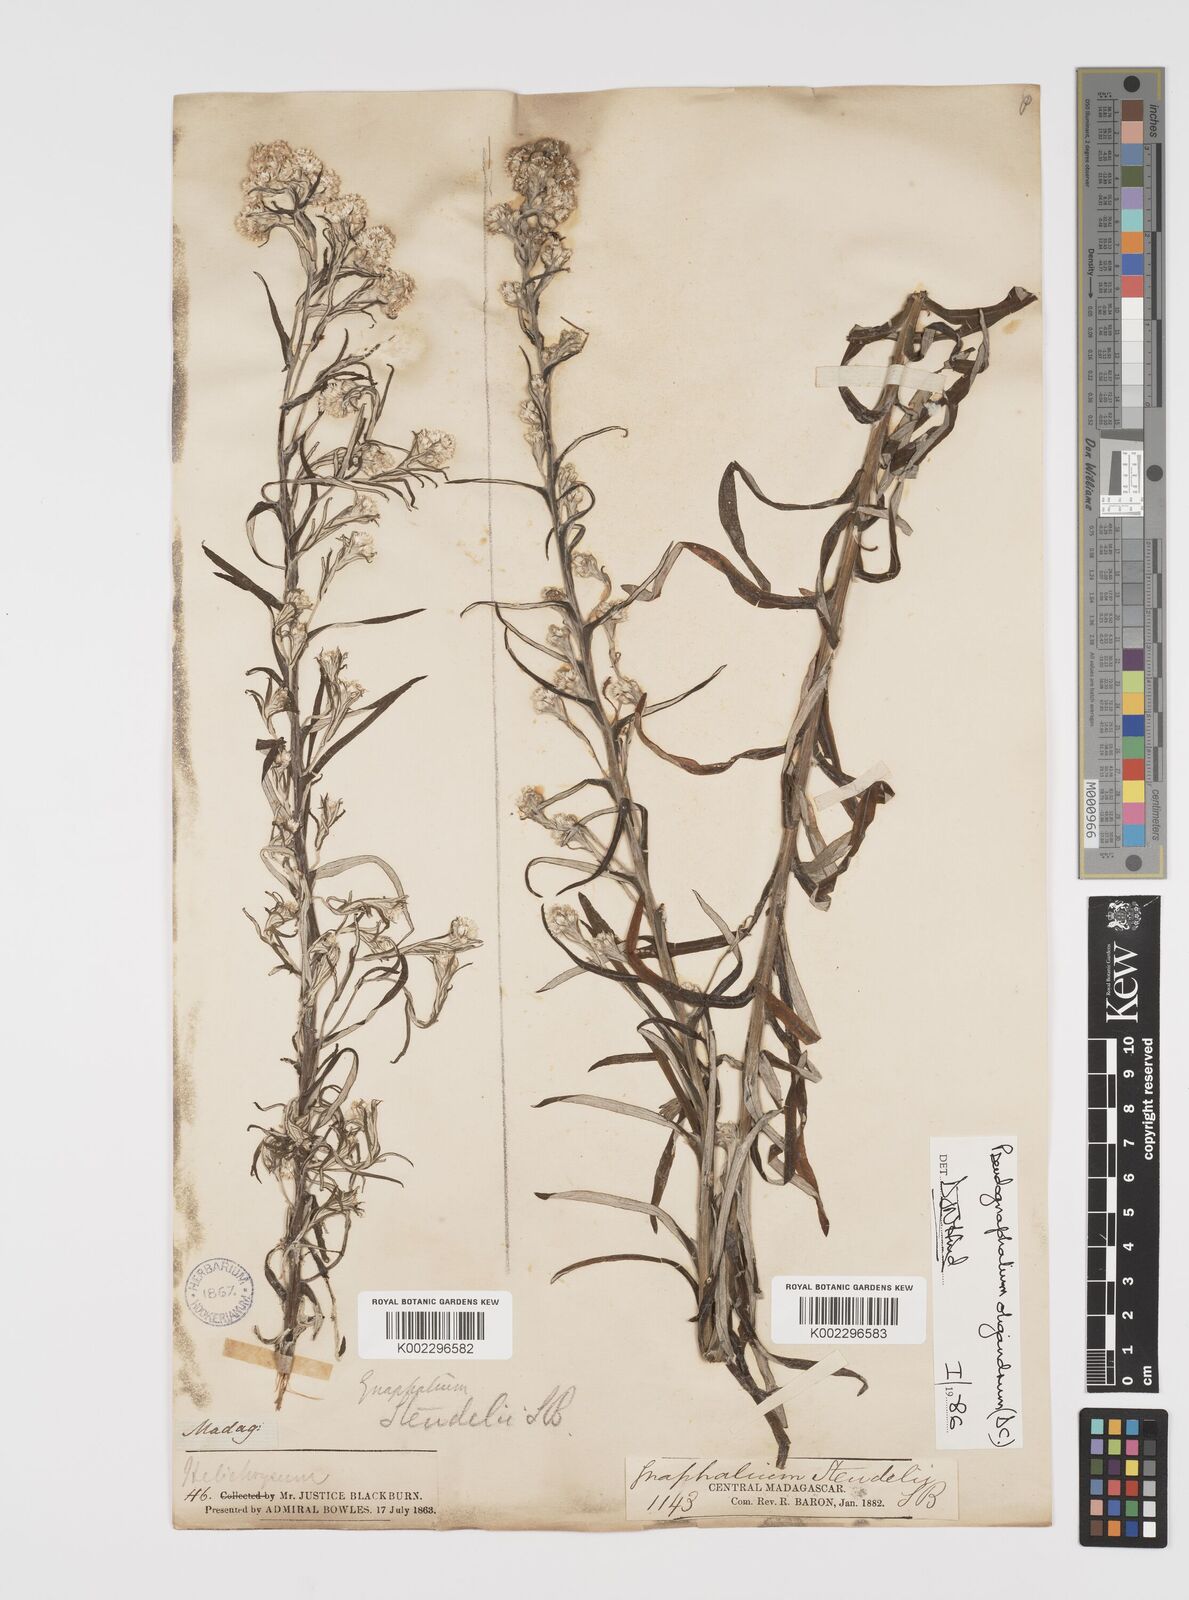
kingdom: Plantae
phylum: Tracheophyta
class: Magnoliopsida
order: Asterales
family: Asteraceae
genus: Pseudognaphalium
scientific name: Pseudognaphalium oligandrum
